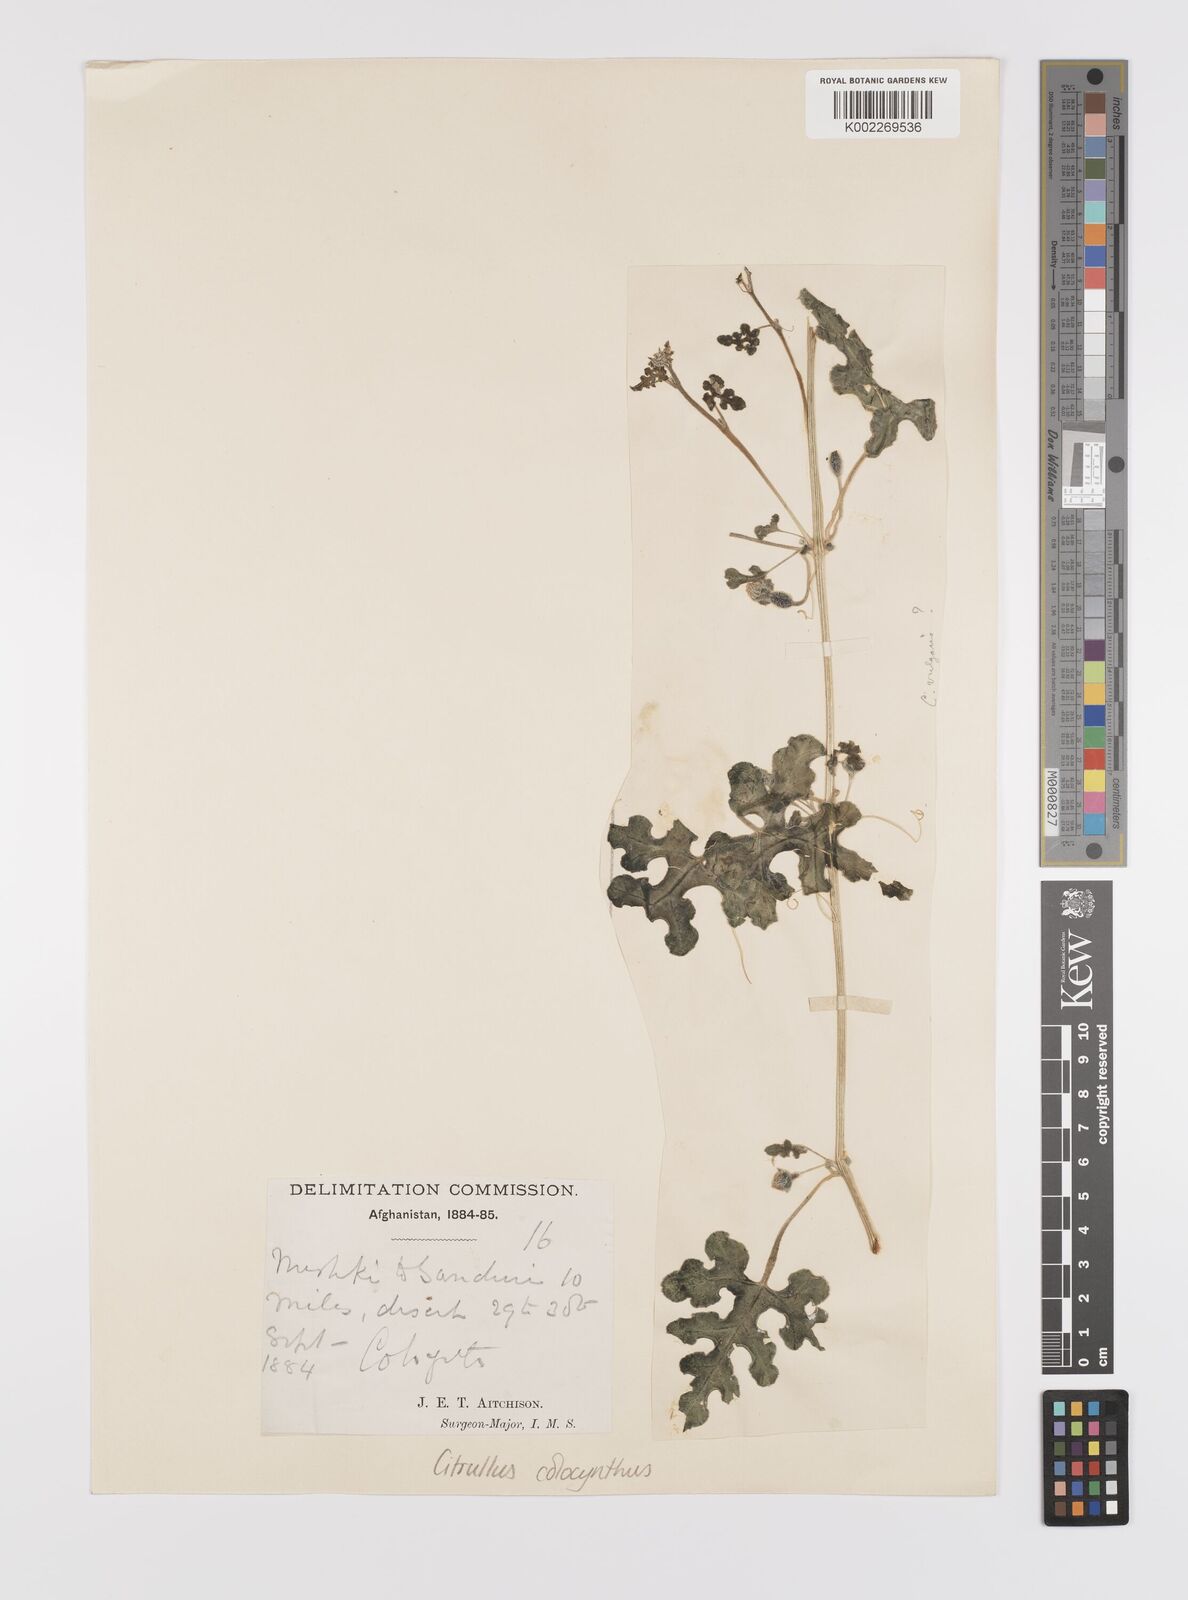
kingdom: Plantae
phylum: Tracheophyta
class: Magnoliopsida
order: Cucurbitales
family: Cucurbitaceae
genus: Citrullus
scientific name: Citrullus colocynthis
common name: Colocynth
